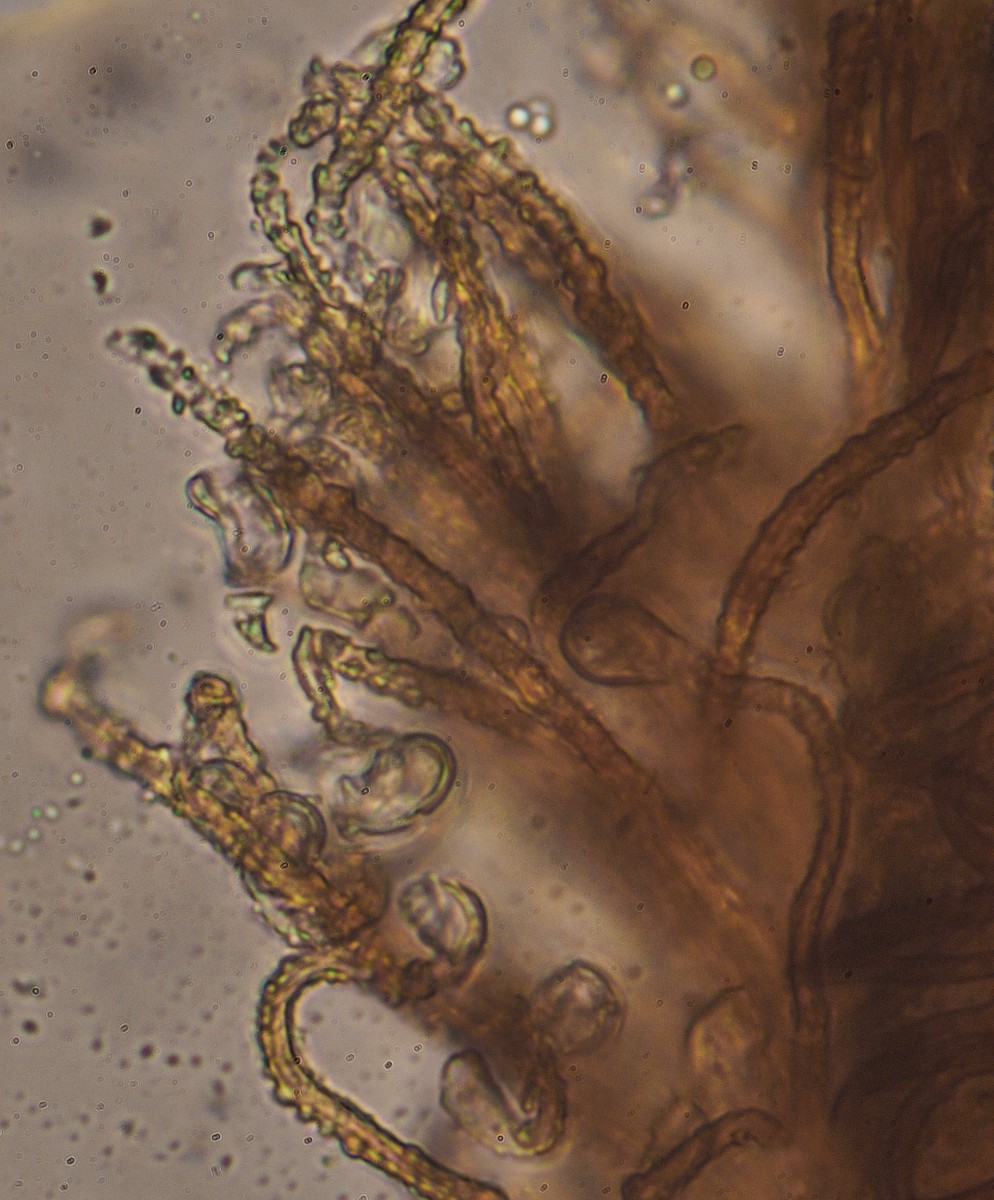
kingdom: Fungi
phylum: Basidiomycota
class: Agaricomycetes
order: Agaricales
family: Niaceae
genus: Merismodes
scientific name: Merismodes anomala
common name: almindelig læderskål
